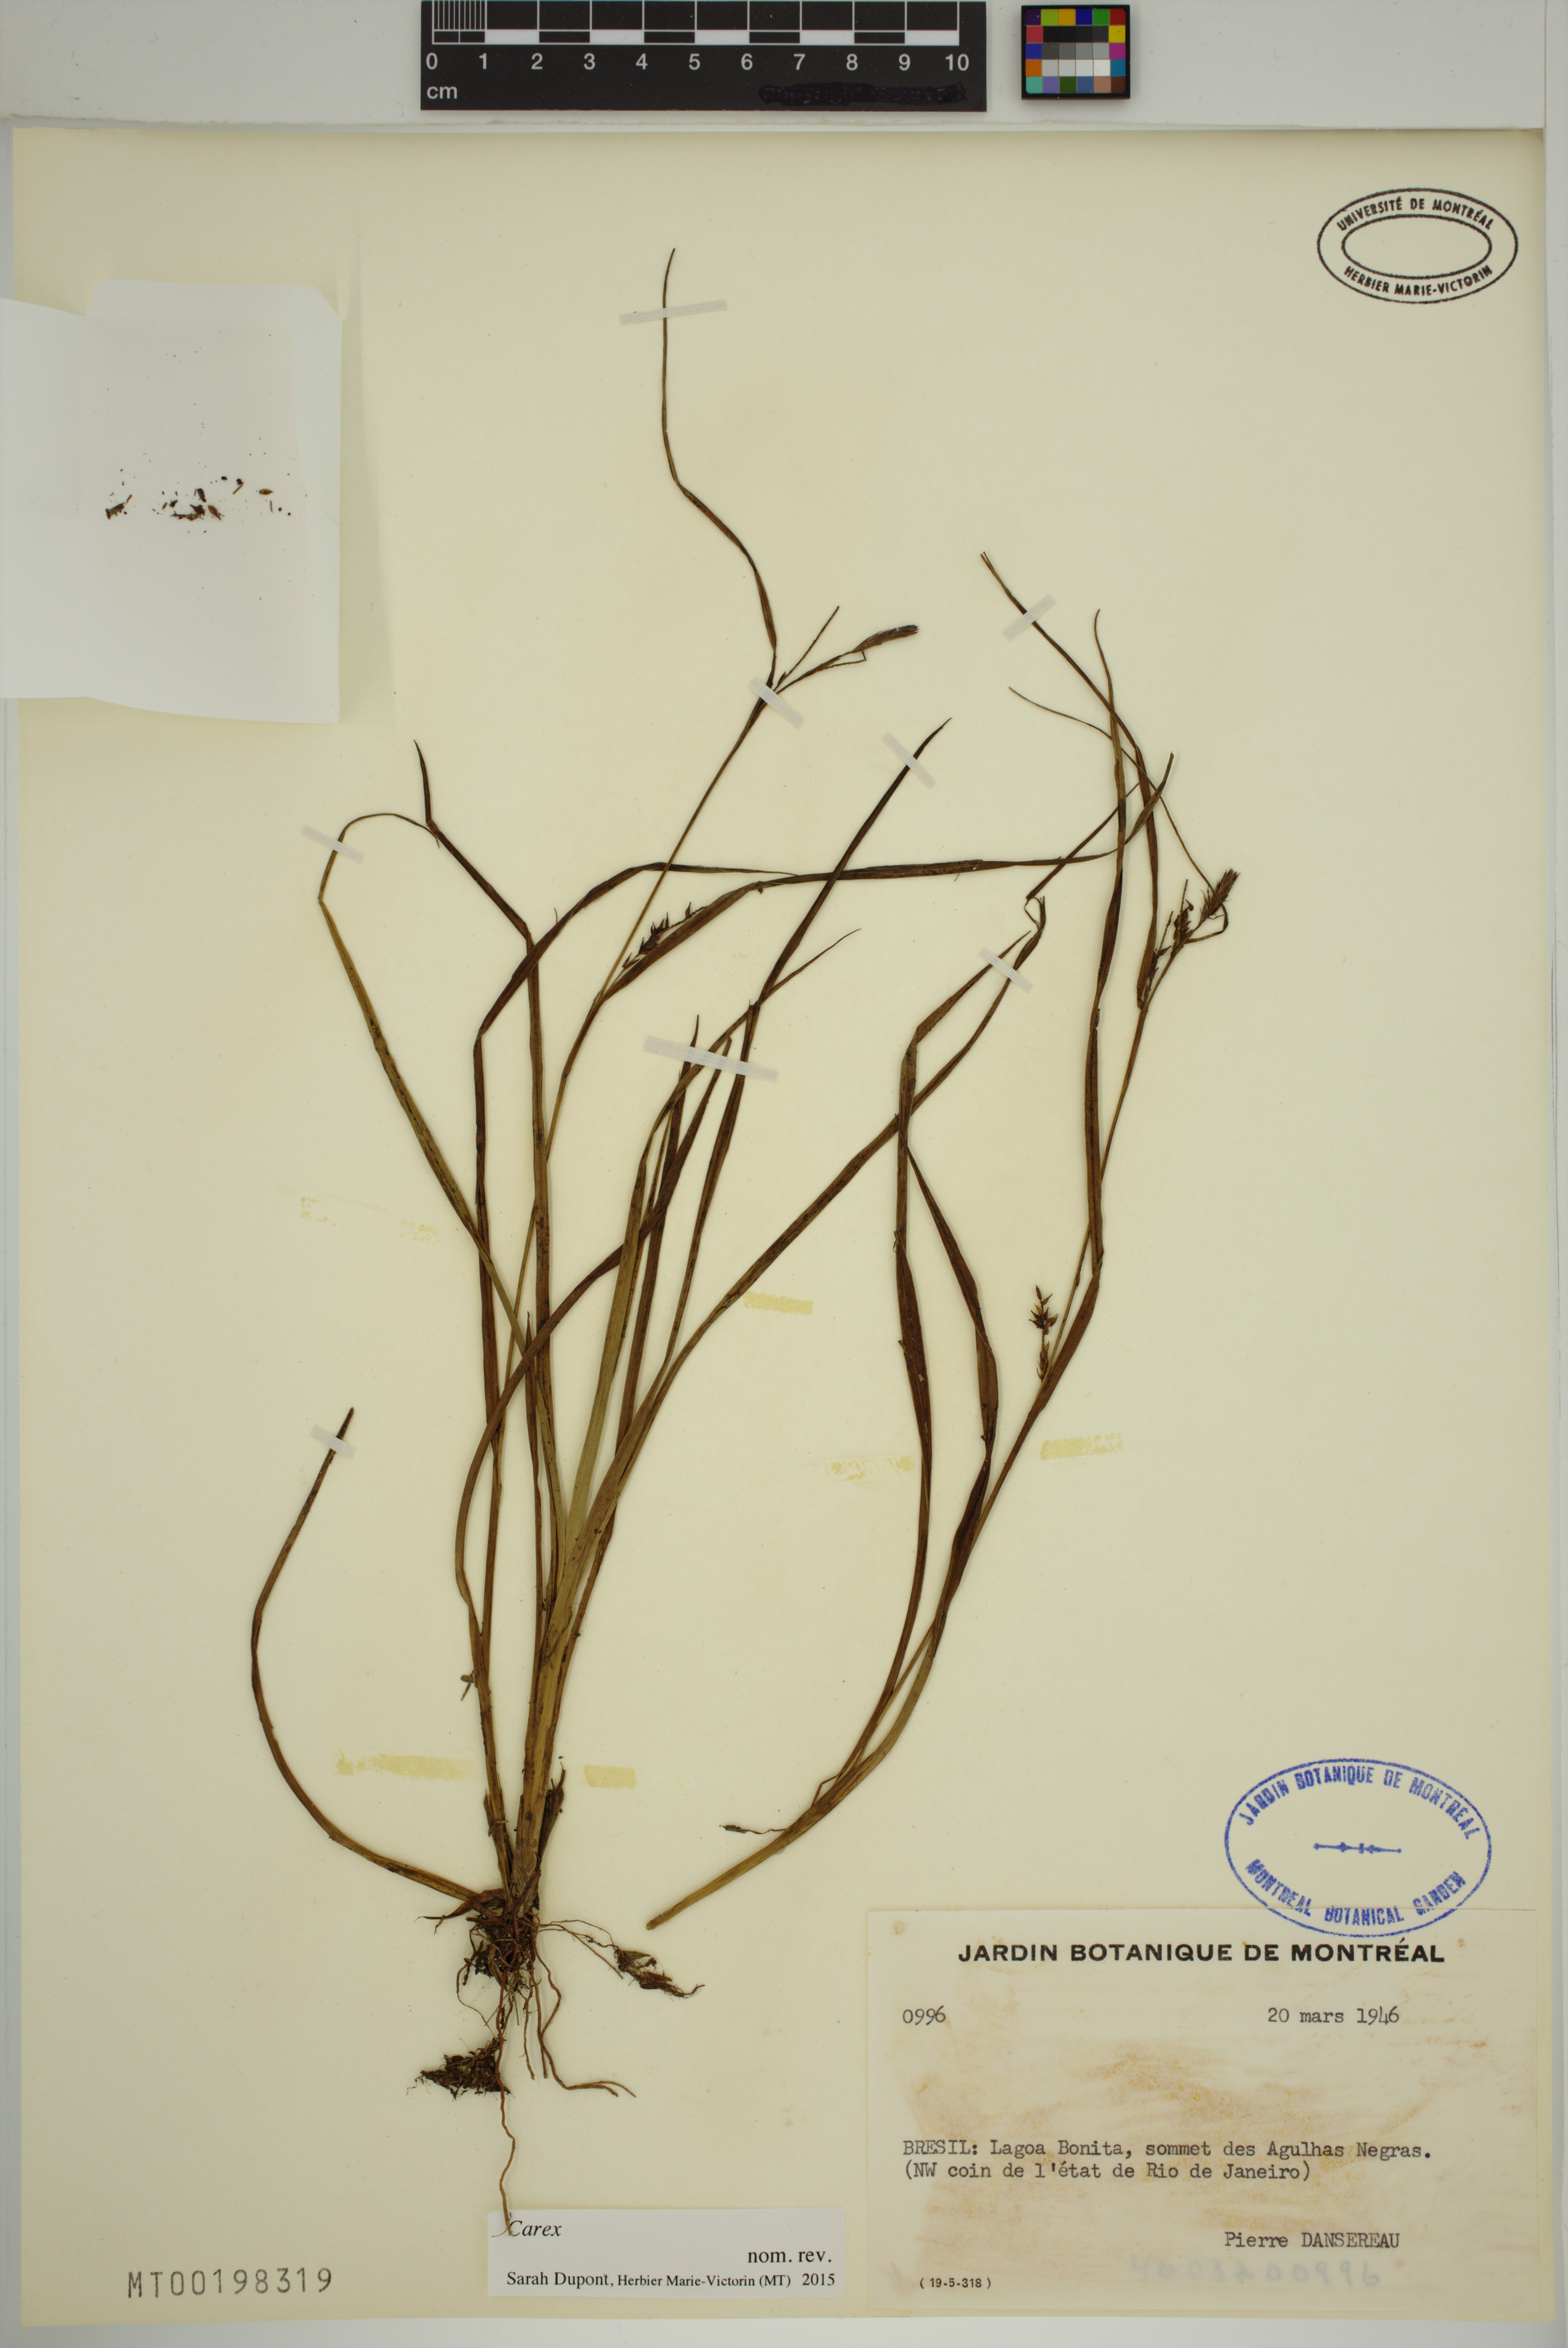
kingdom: Plantae
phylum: Tracheophyta
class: Liliopsida
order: Poales
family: Cyperaceae
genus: Carex
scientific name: Carex
